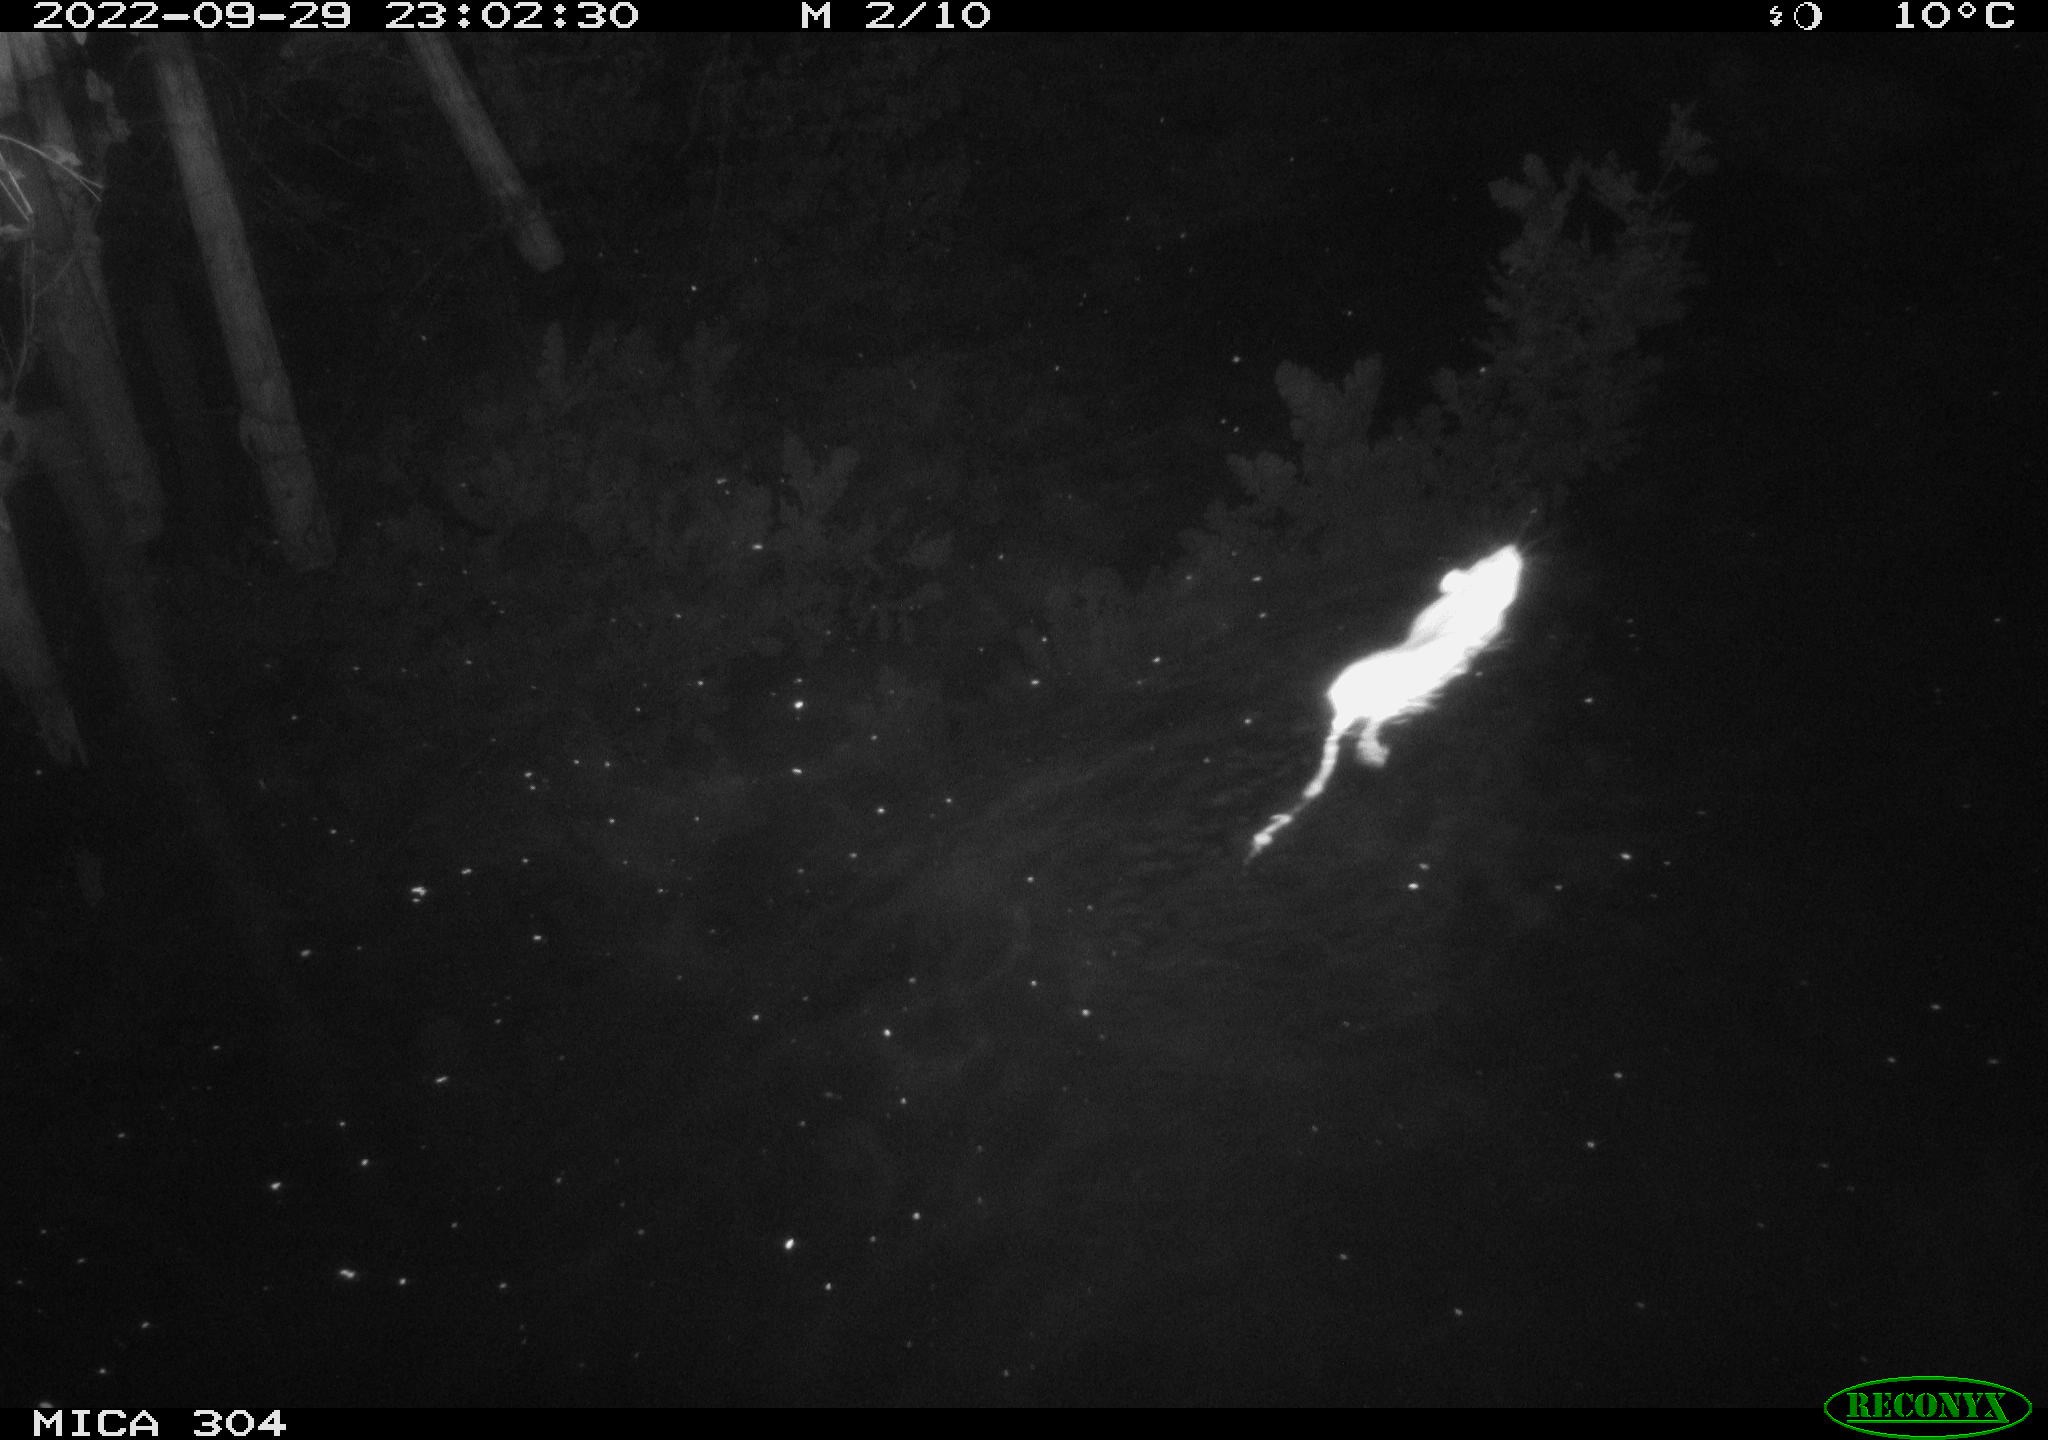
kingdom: Animalia
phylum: Chordata
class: Mammalia
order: Rodentia
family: Muridae
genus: Rattus
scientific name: Rattus norvegicus
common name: Brown rat
